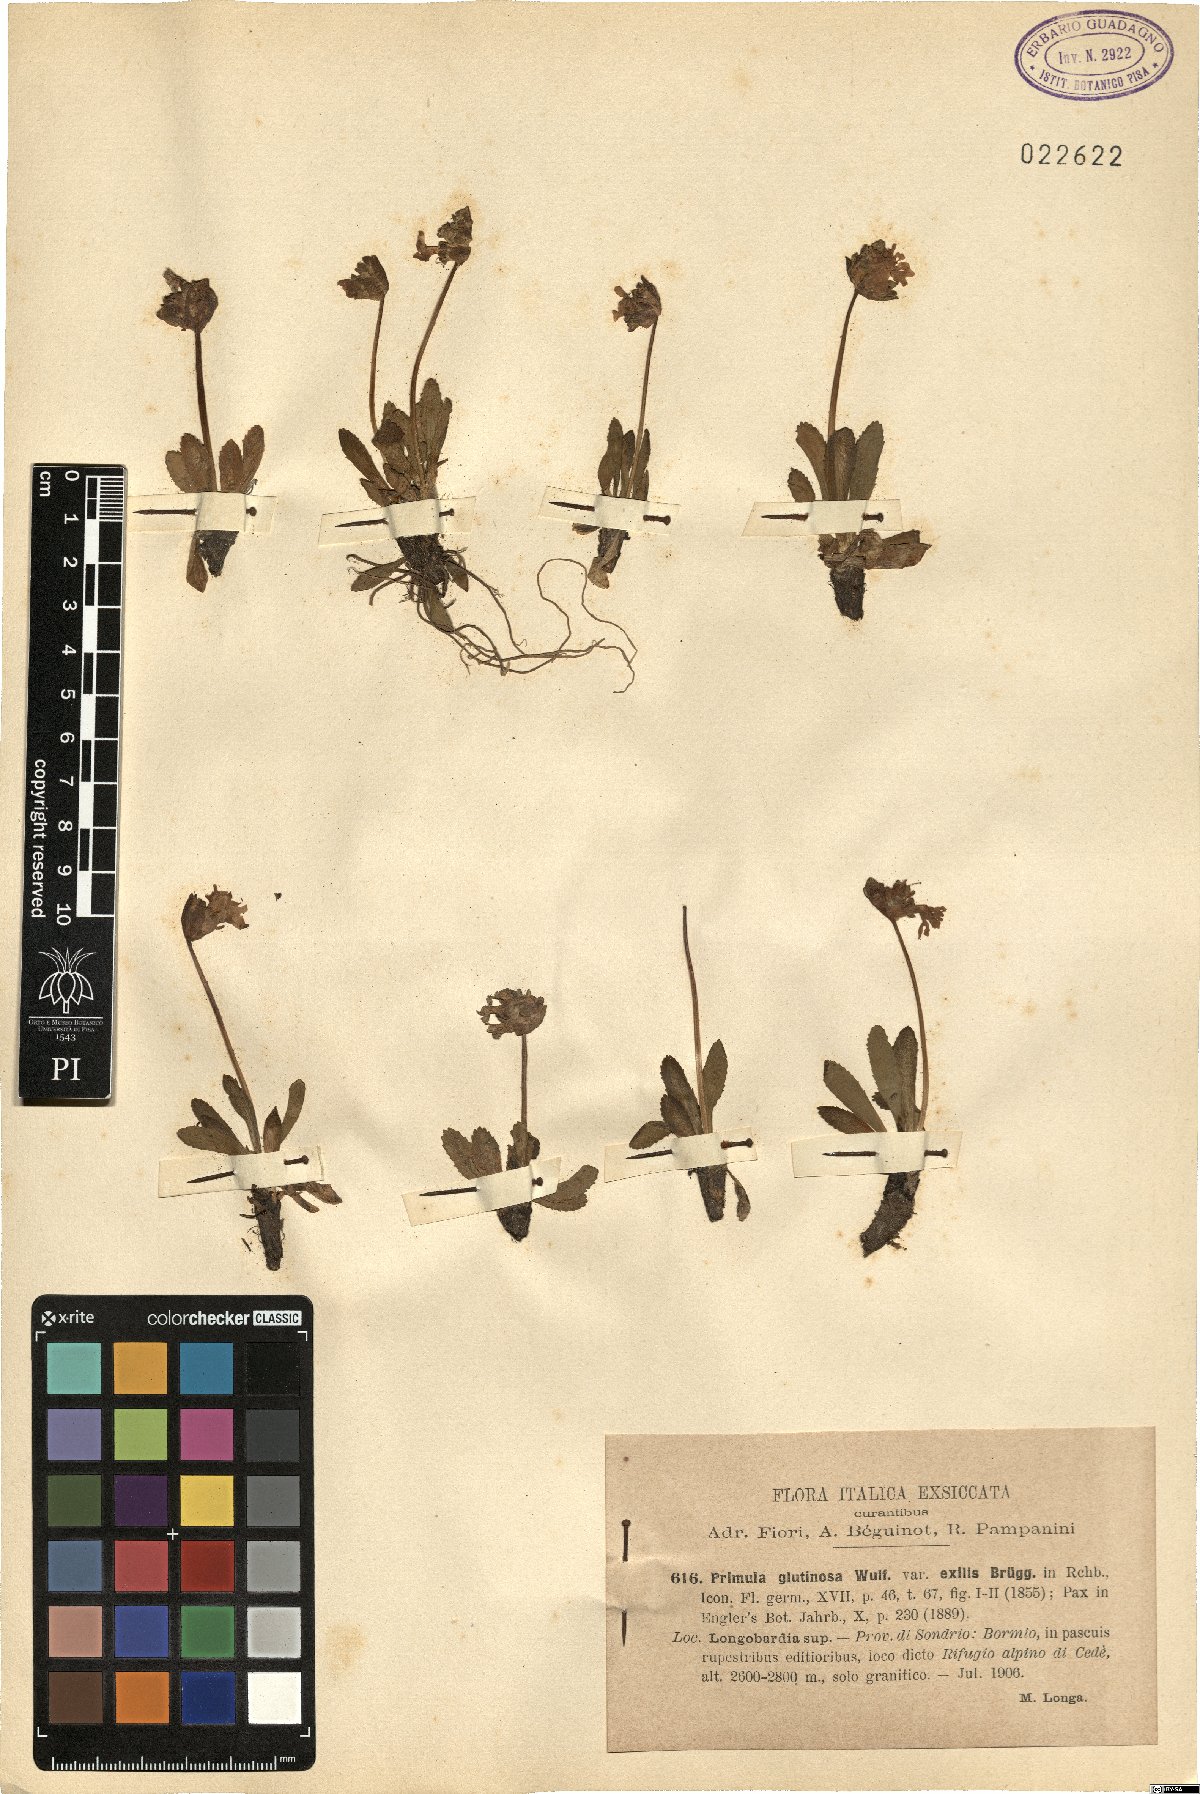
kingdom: Plantae
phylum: Tracheophyta
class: Magnoliopsida
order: Ericales
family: Primulaceae
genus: Primula
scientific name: Primula glutinosa
